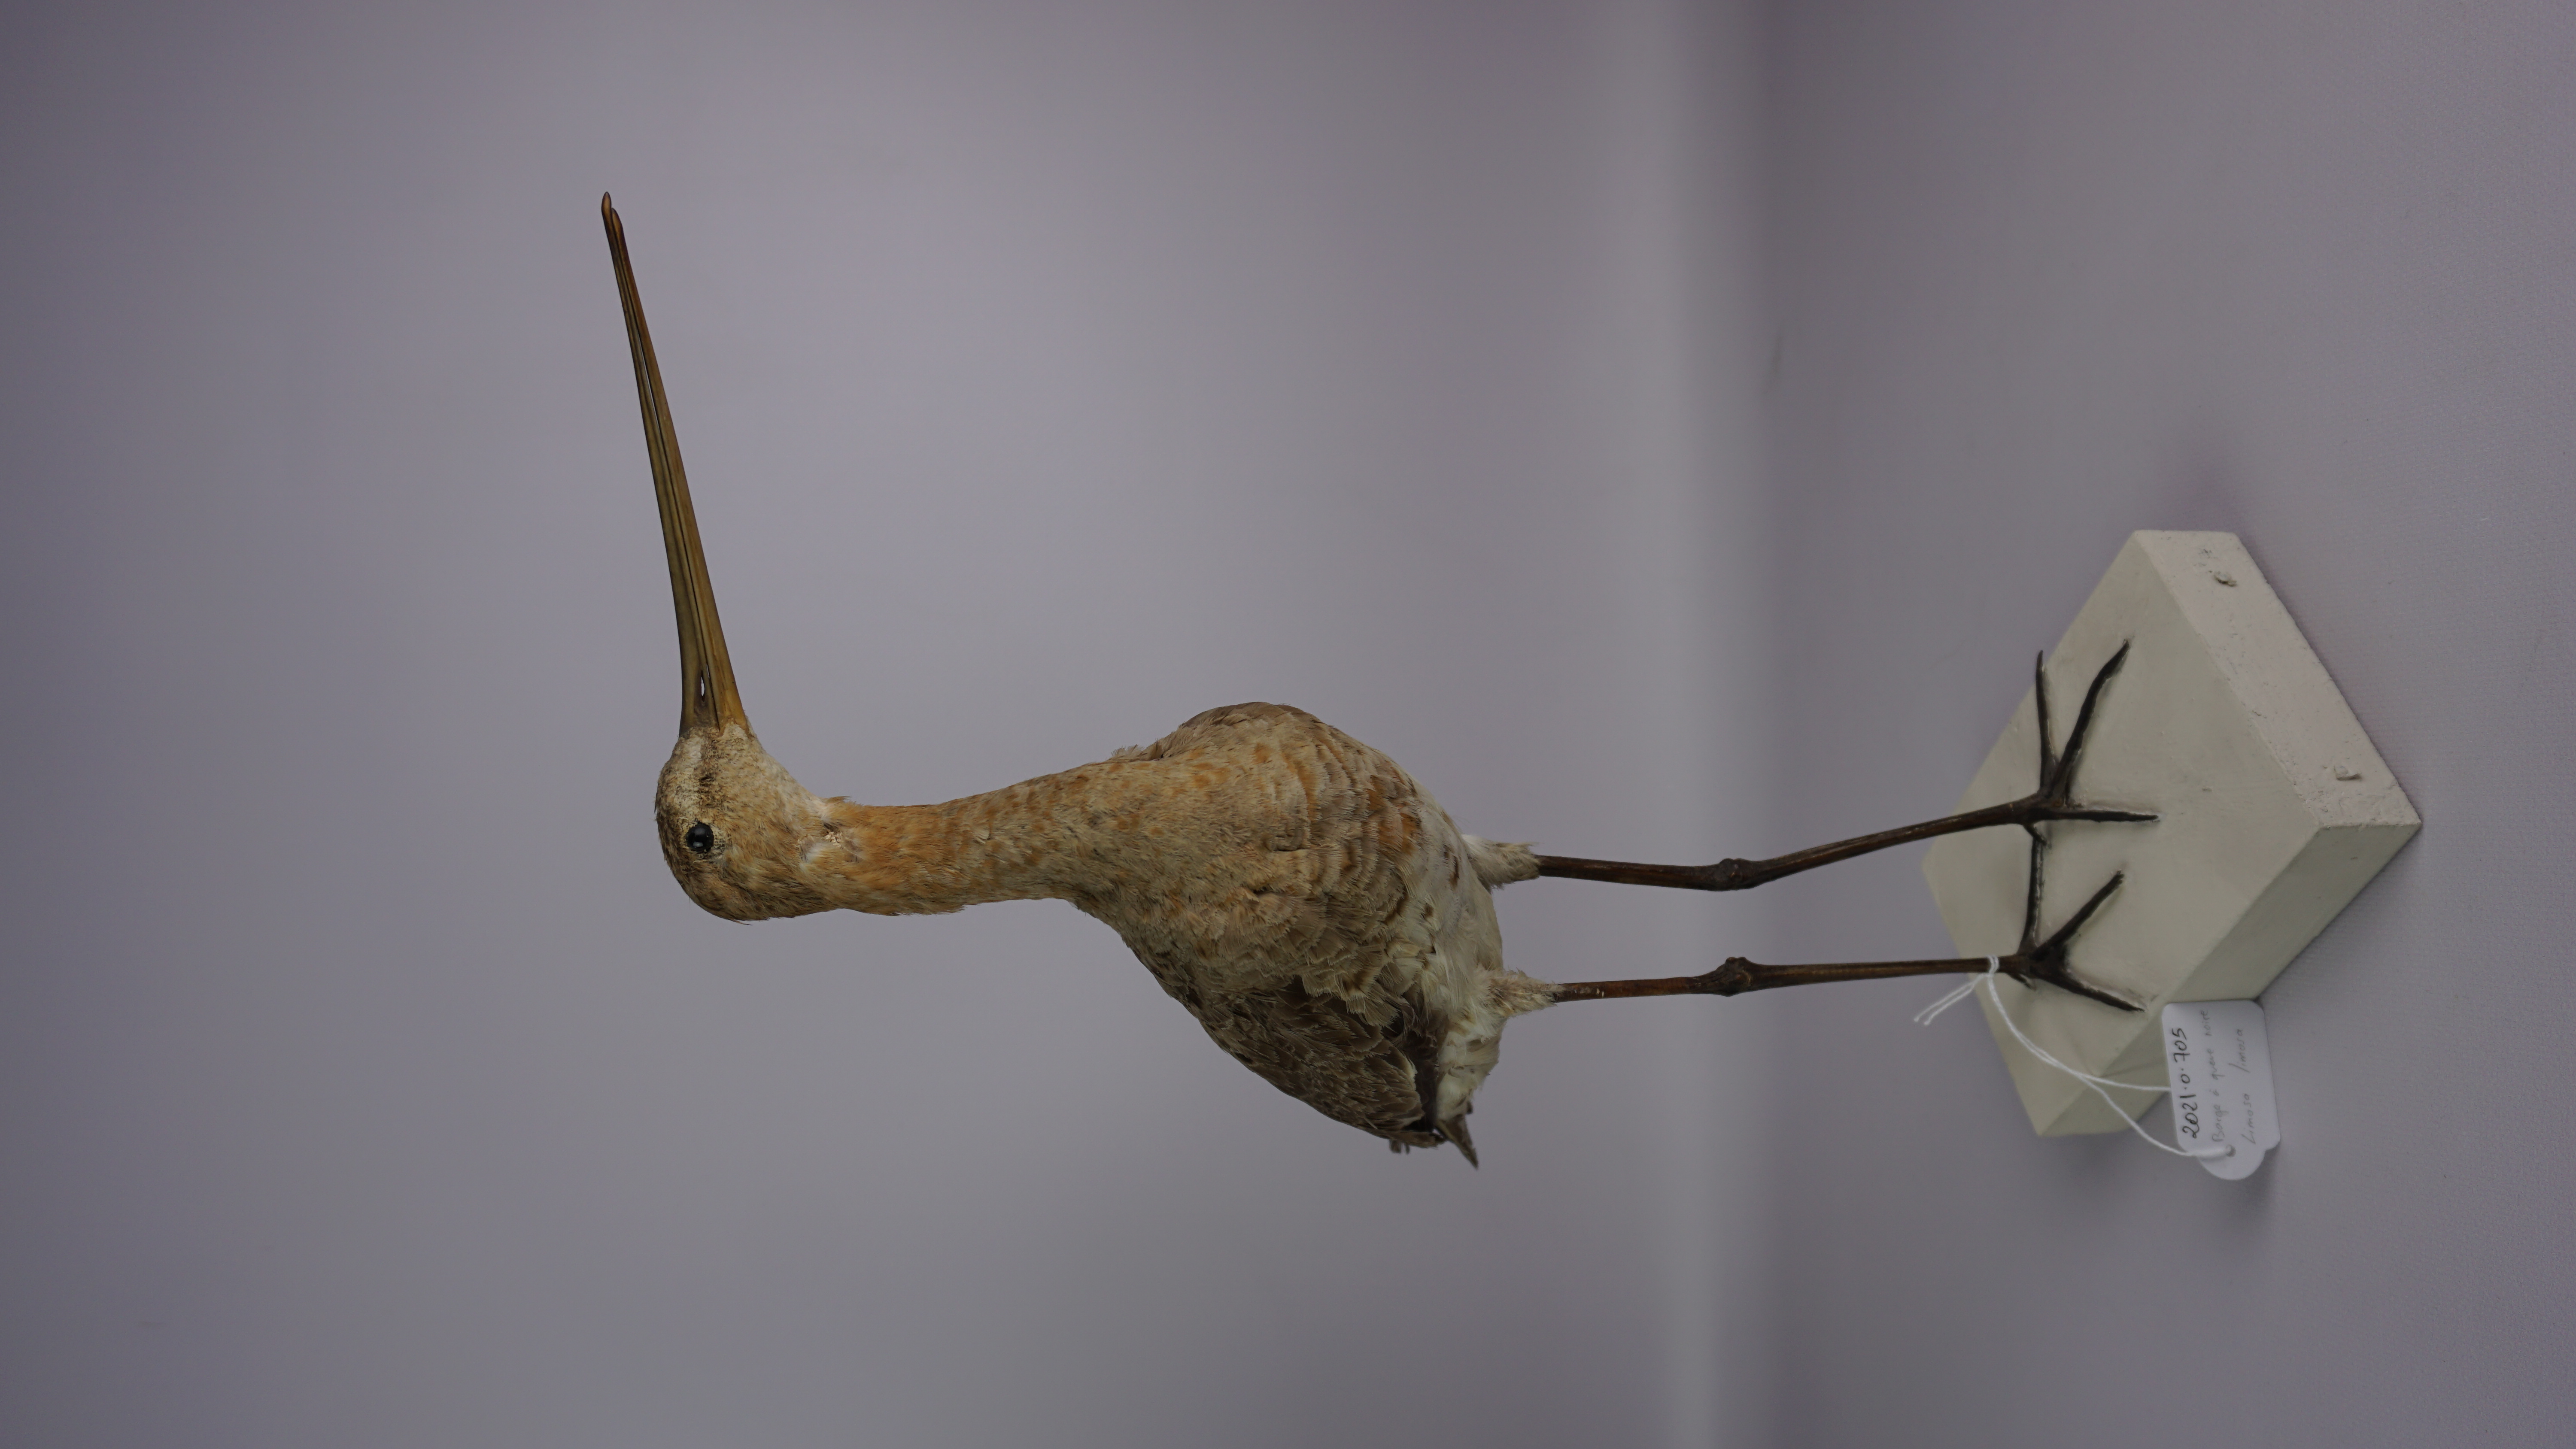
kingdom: Animalia
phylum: Chordata
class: Aves
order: Charadriiformes
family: Scolopacidae
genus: Limosa
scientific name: Limosa limosa
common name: Black-tailed godwit
